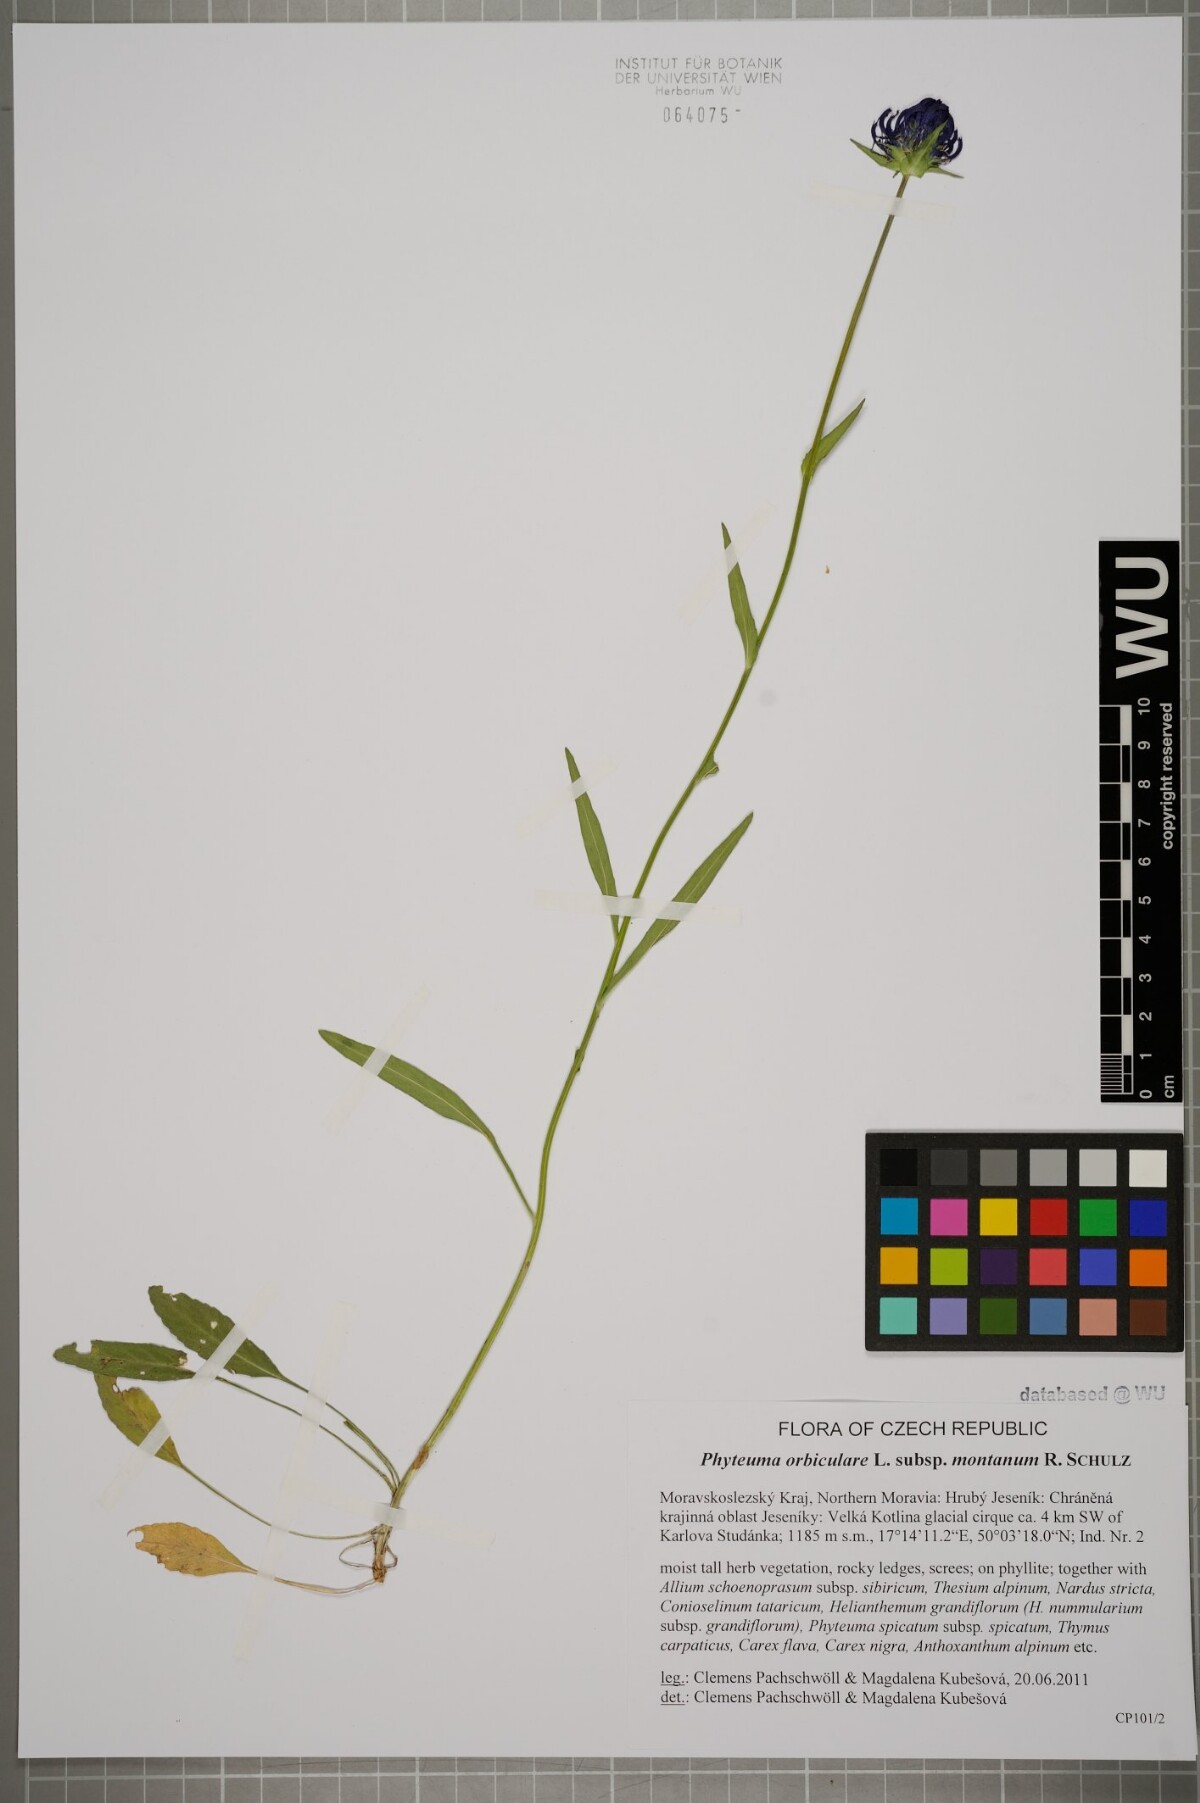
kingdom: Plantae
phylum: Tracheophyta
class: Magnoliopsida
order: Asterales
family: Campanulaceae
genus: Phyteuma
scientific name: Phyteuma orbiculare
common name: Round-headed rampion
